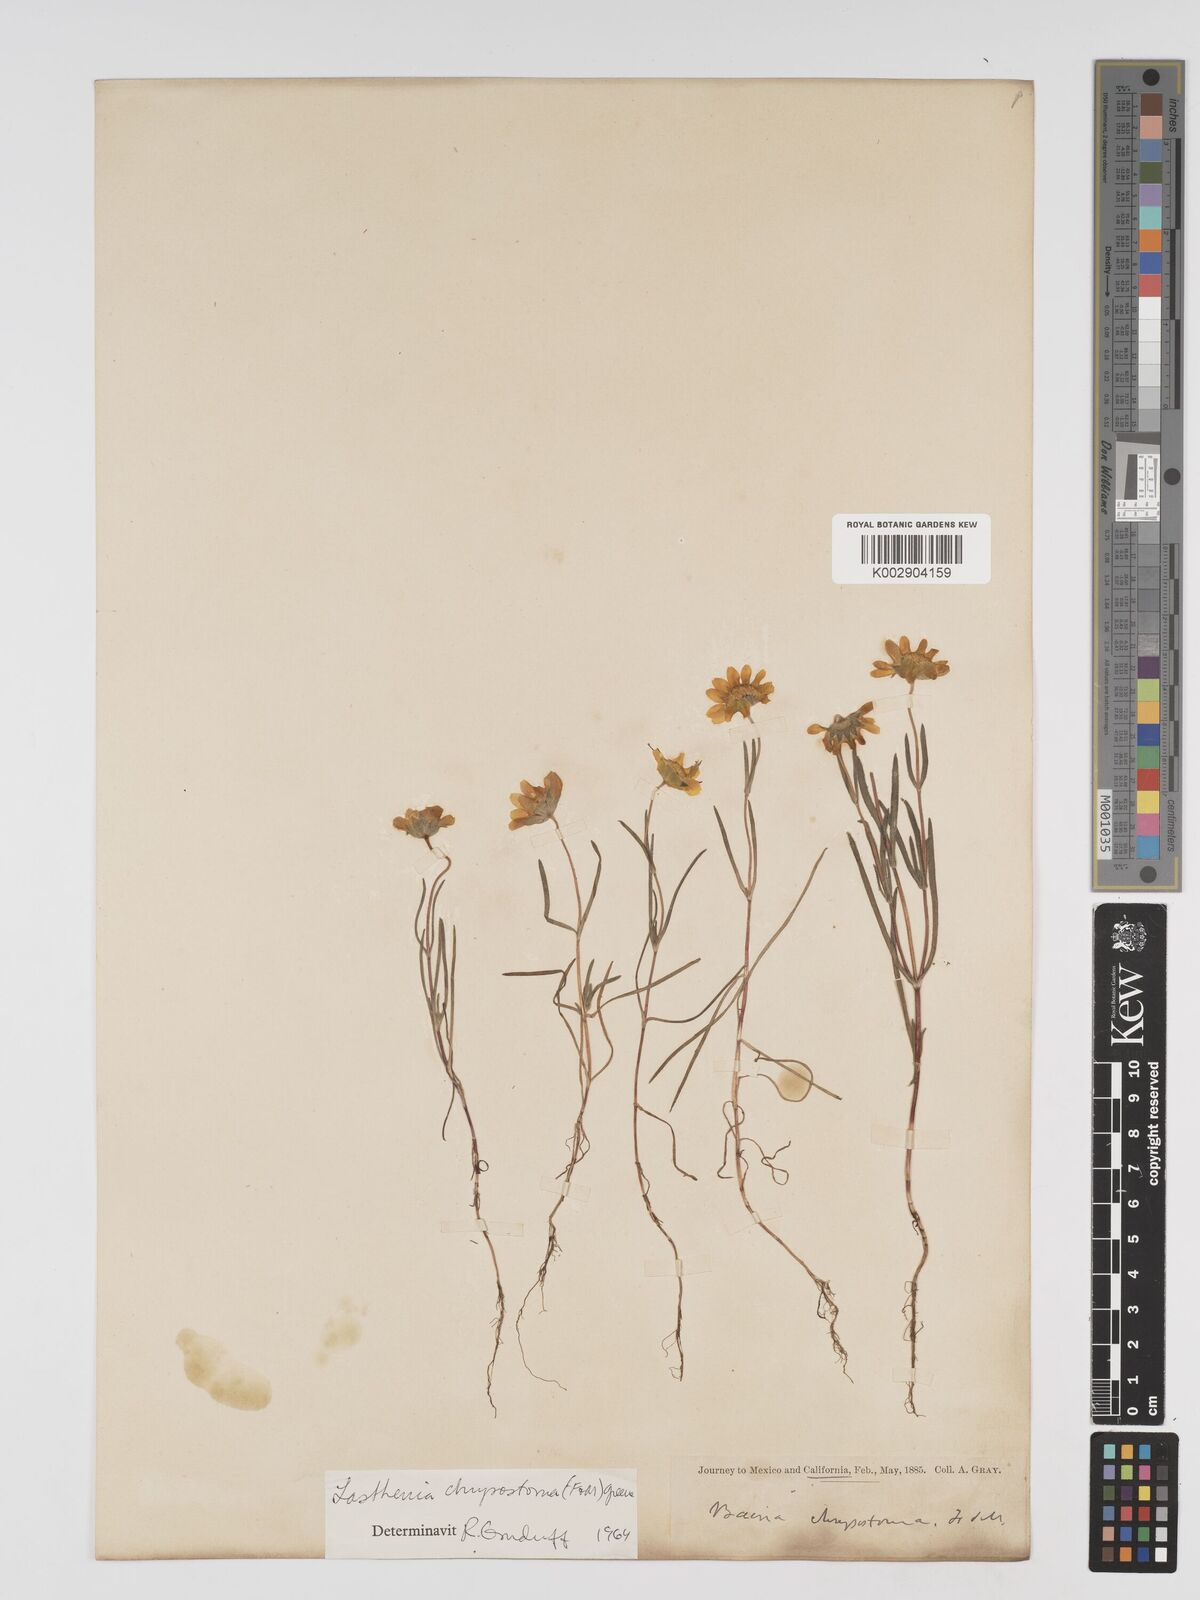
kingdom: Plantae
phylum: Tracheophyta
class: Magnoliopsida
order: Asterales
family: Asteraceae
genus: Lasthenia
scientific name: Lasthenia californica
